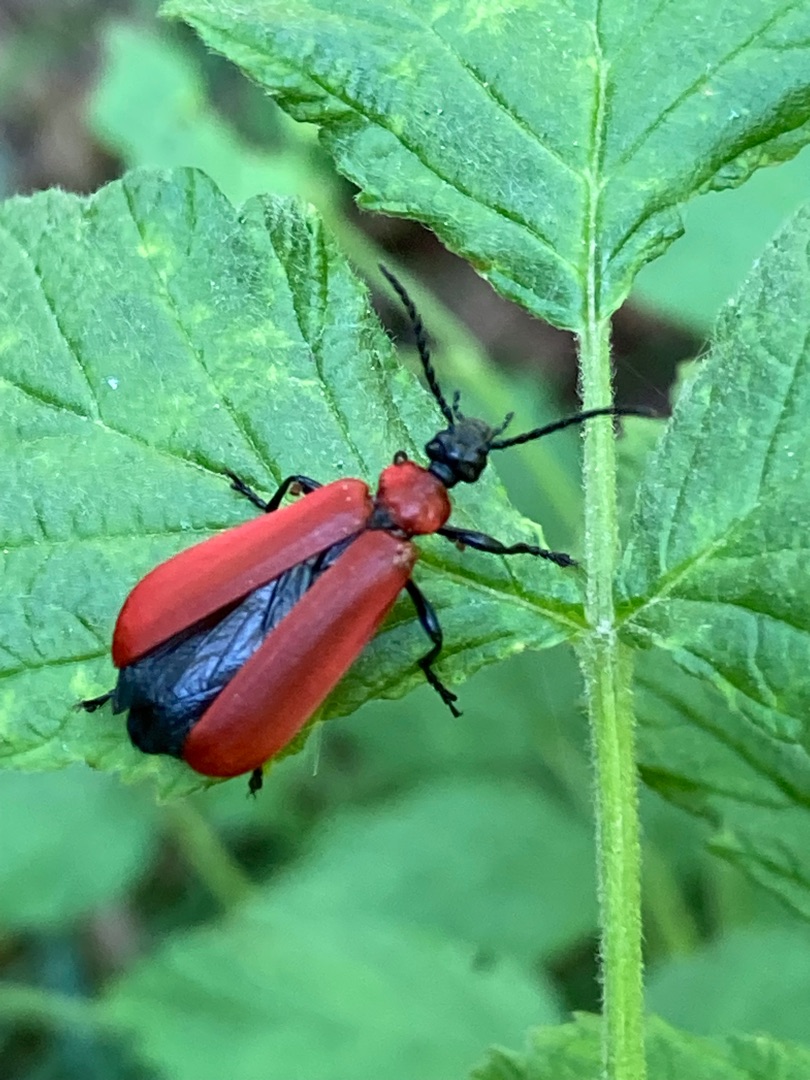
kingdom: Animalia
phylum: Arthropoda
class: Insecta
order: Coleoptera
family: Pyrochroidae
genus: Pyrochroa
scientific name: Pyrochroa coccinea
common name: Sorthovedet kardinalbille
